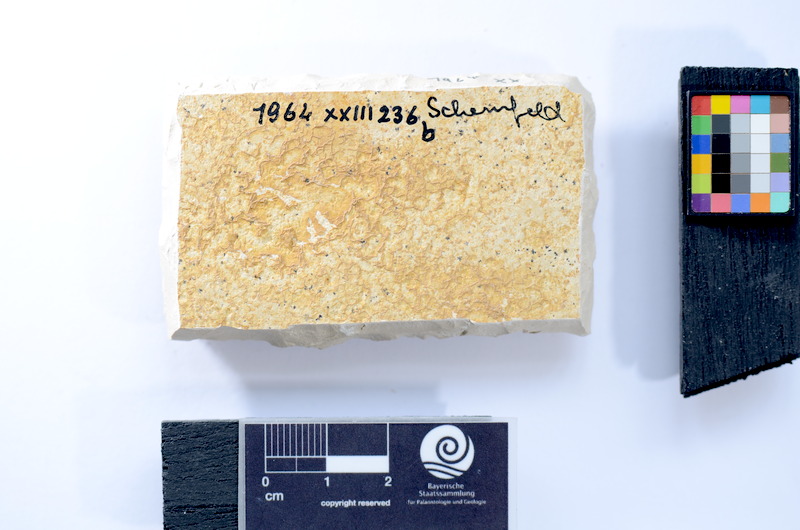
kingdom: Animalia
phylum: Chordata
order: Salmoniformes
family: Orthogonikleithridae
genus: Leptolepides
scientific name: Leptolepides
